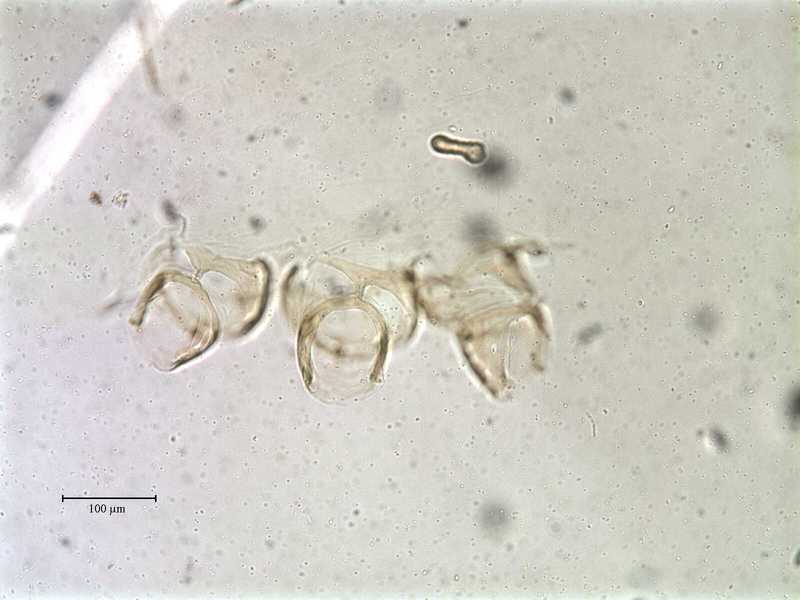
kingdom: Animalia
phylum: Arthropoda
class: Arachnida
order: Mesostigmata
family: Rhinonyssidae
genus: Vitznyssus
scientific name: Vitznyssus vitzthumi
